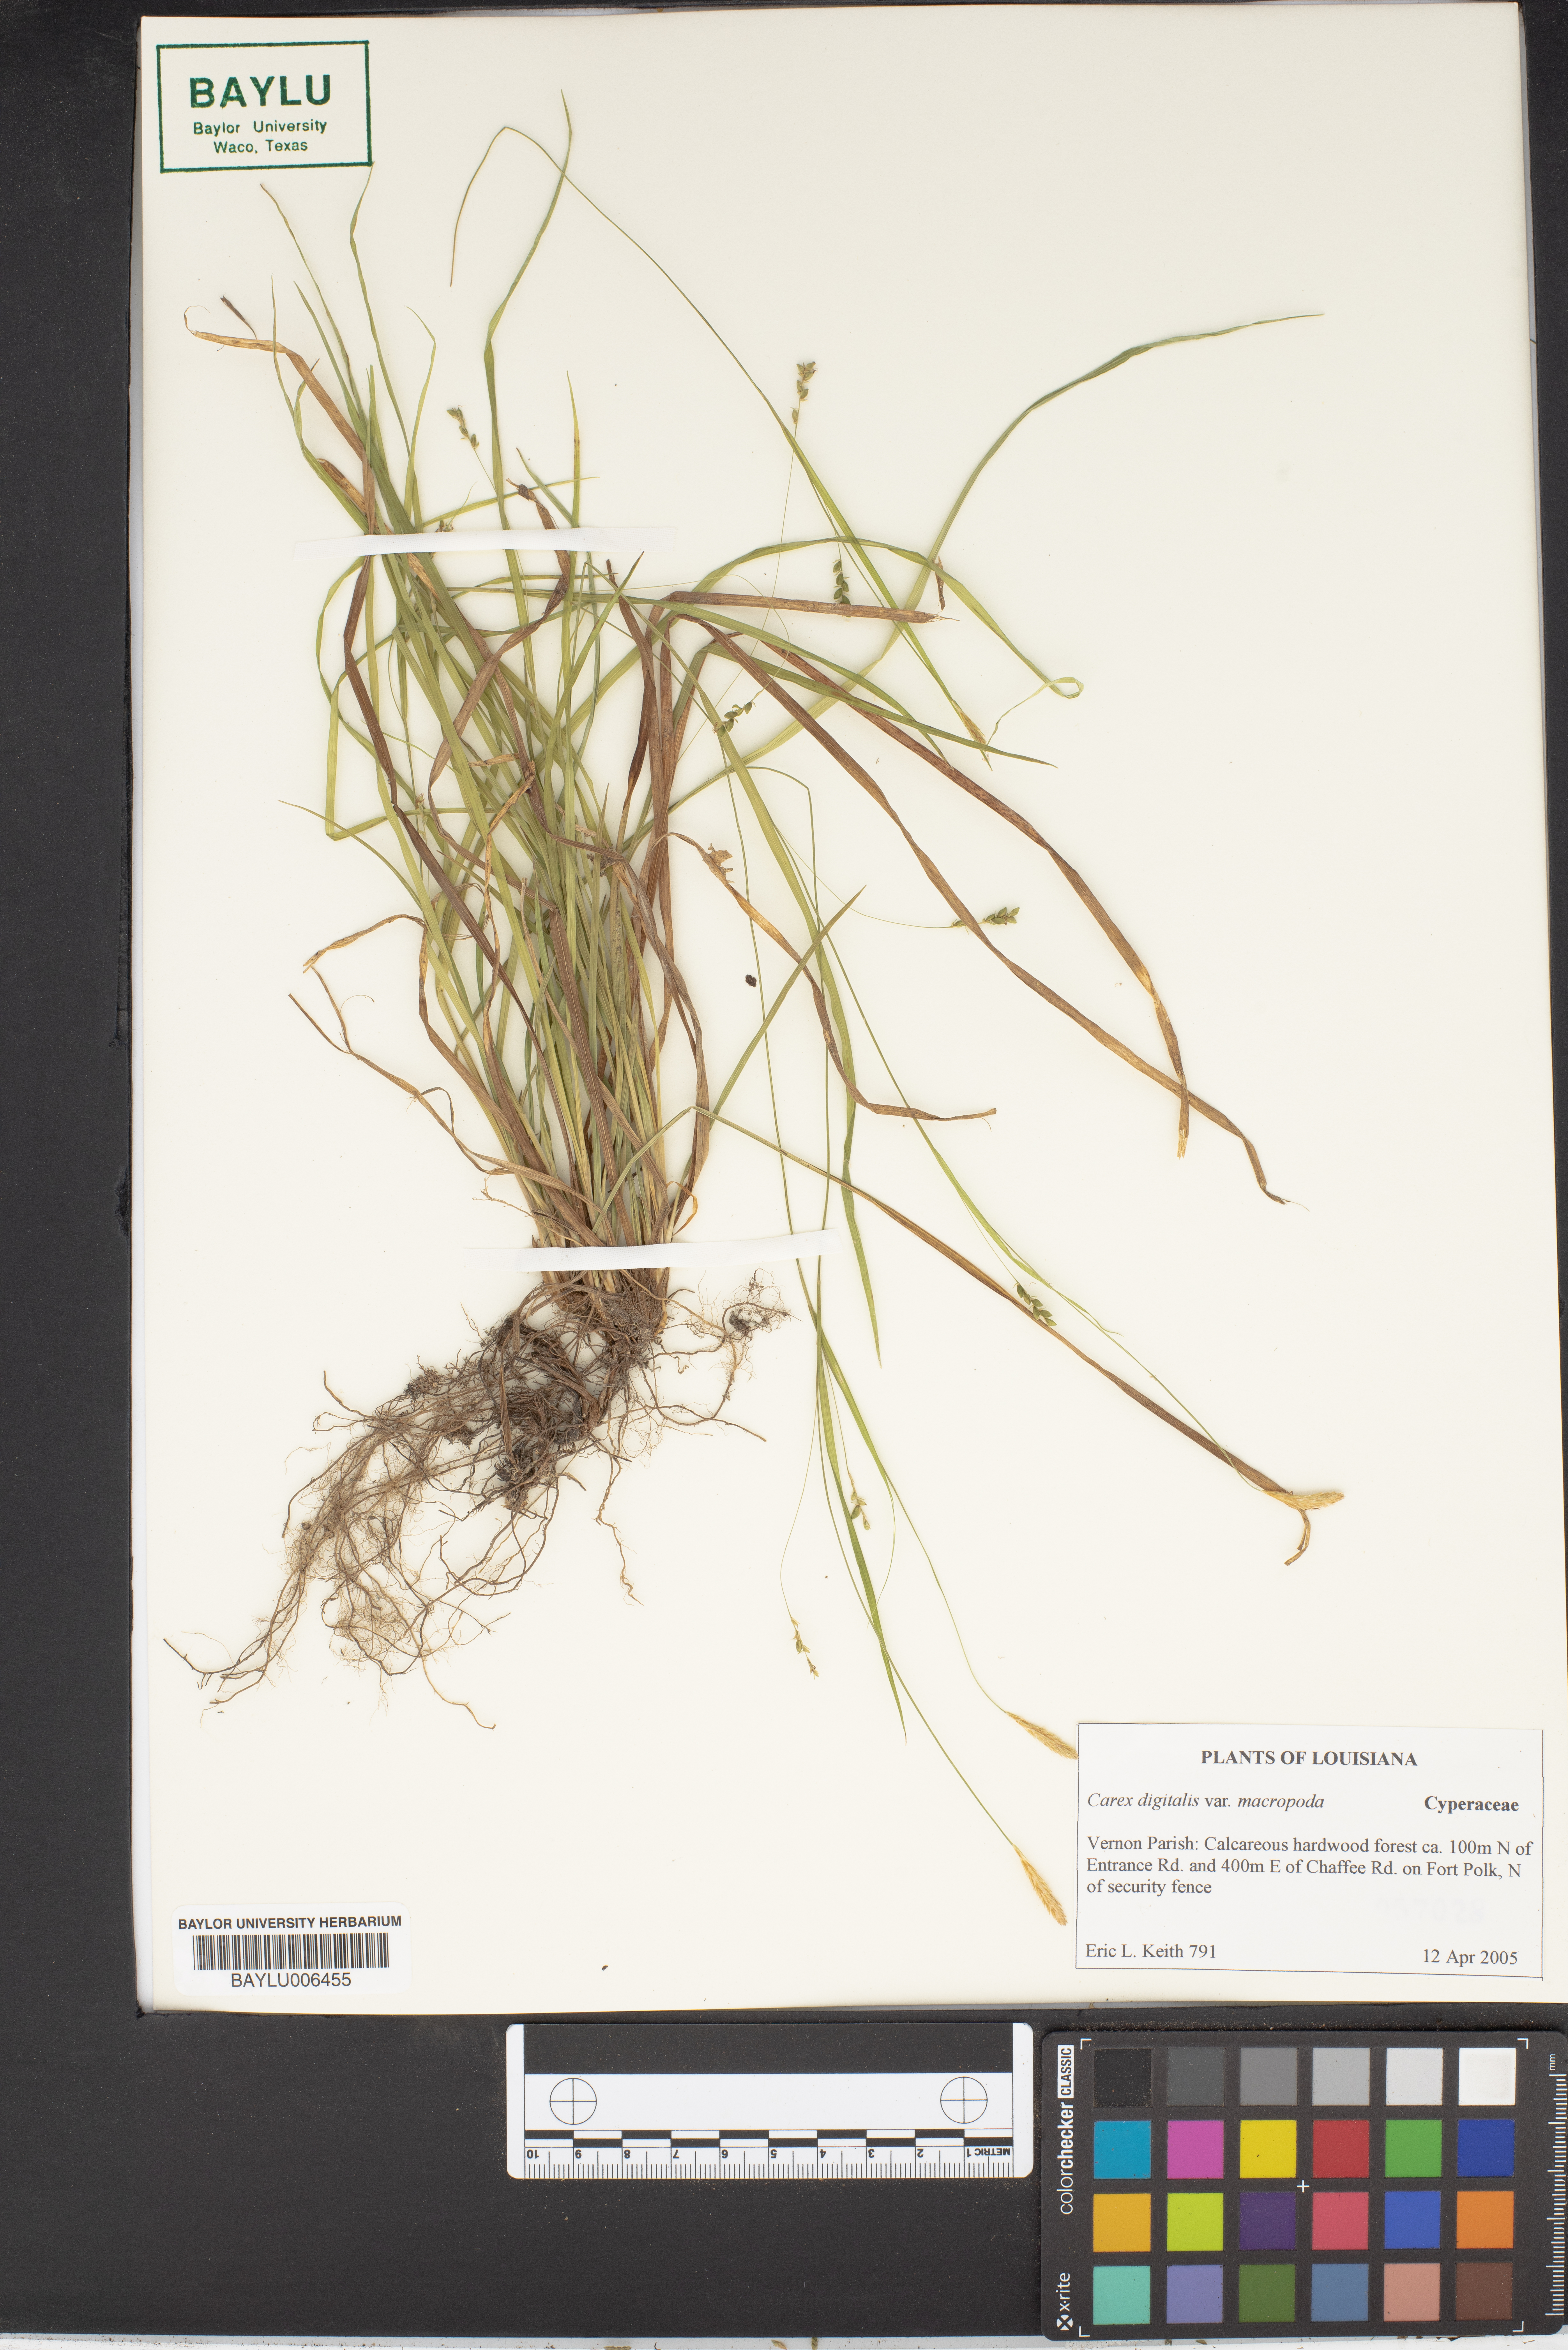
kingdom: Plantae
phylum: Tracheophyta
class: Liliopsida
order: Poales
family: Cyperaceae
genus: Carex
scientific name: Carex digitalis
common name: Slender wood sedge
